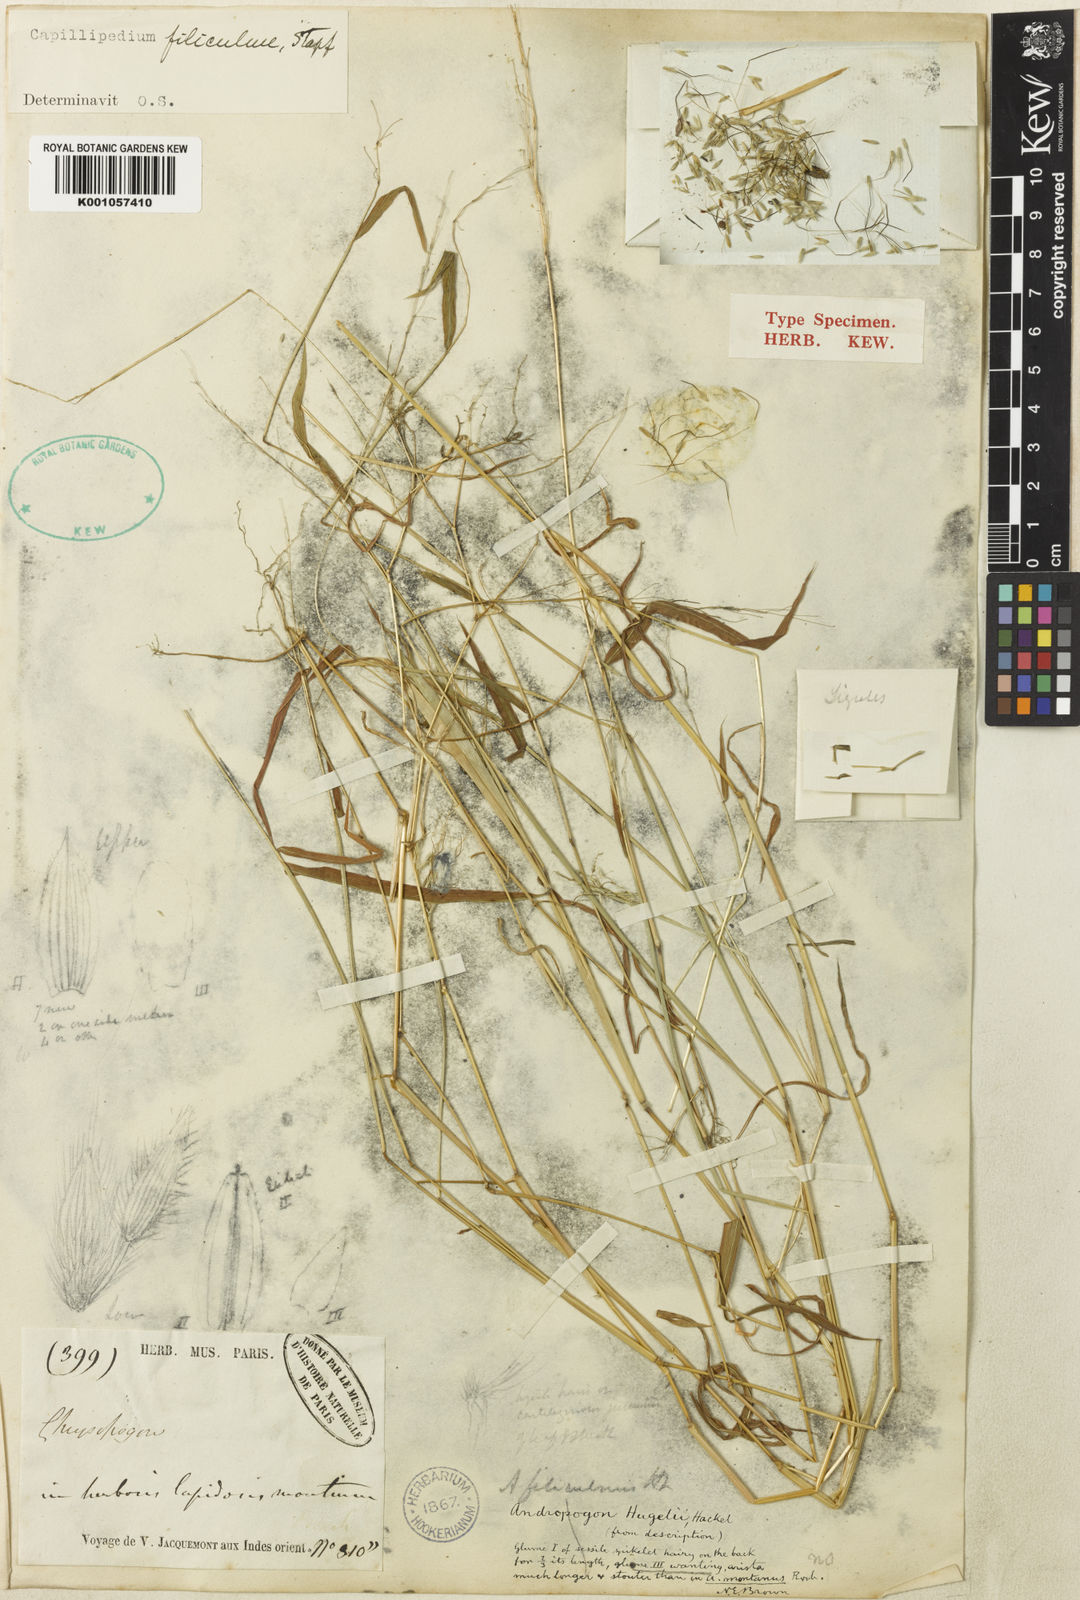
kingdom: Plantae
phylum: Tracheophyta
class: Liliopsida
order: Poales
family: Poaceae
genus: Capillipedium
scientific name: Capillipedium filiculme
